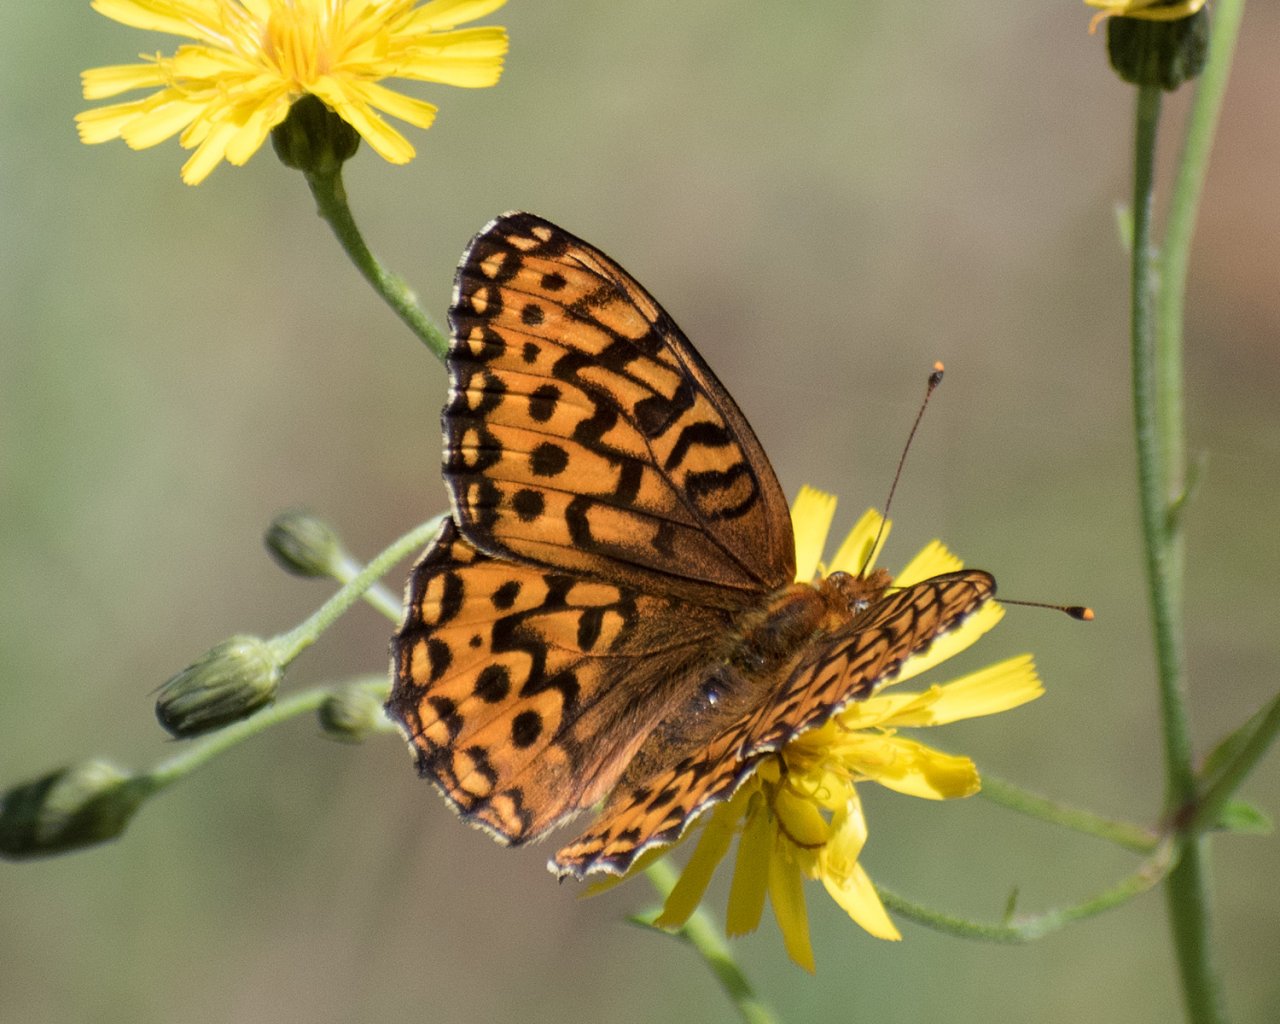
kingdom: Animalia
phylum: Arthropoda
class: Insecta
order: Lepidoptera
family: Nymphalidae
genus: Speyeria
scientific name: Speyeria hydaspe
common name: Hydaspe Fritillary
